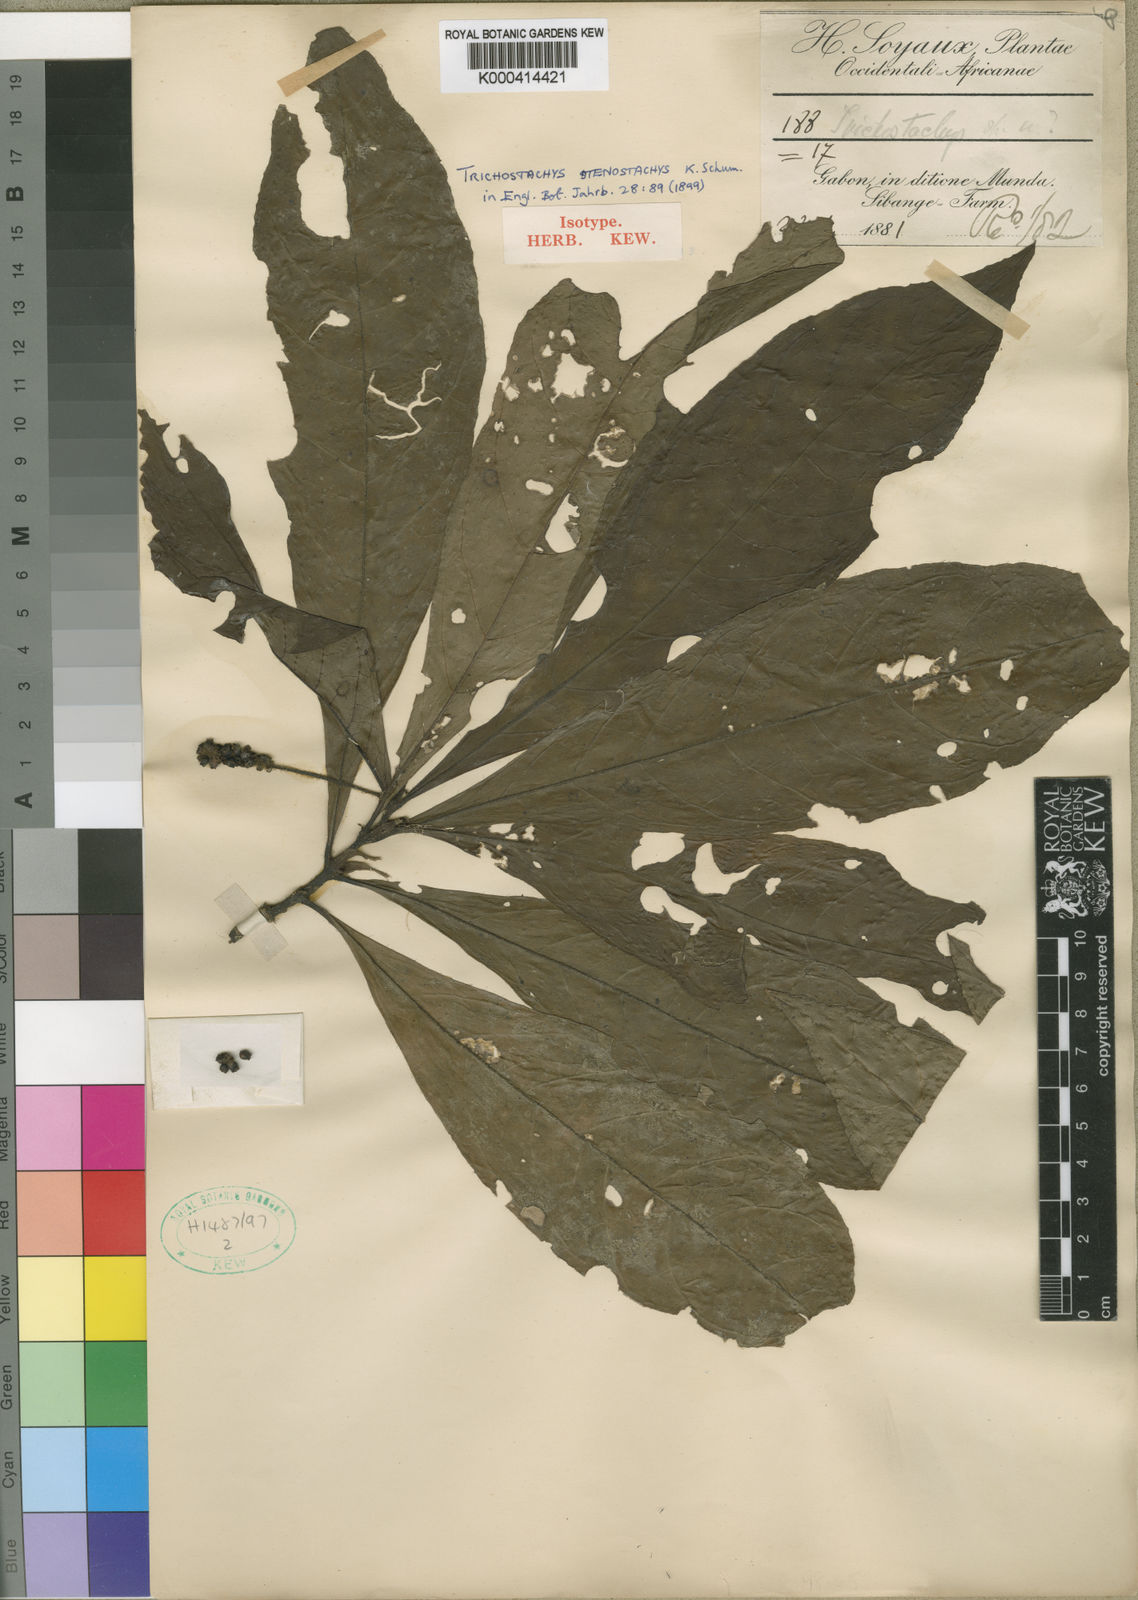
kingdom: Plantae
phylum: Tracheophyta
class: Magnoliopsida
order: Gentianales
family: Rubiaceae
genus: Trichostachys
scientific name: Trichostachys stenostachys
